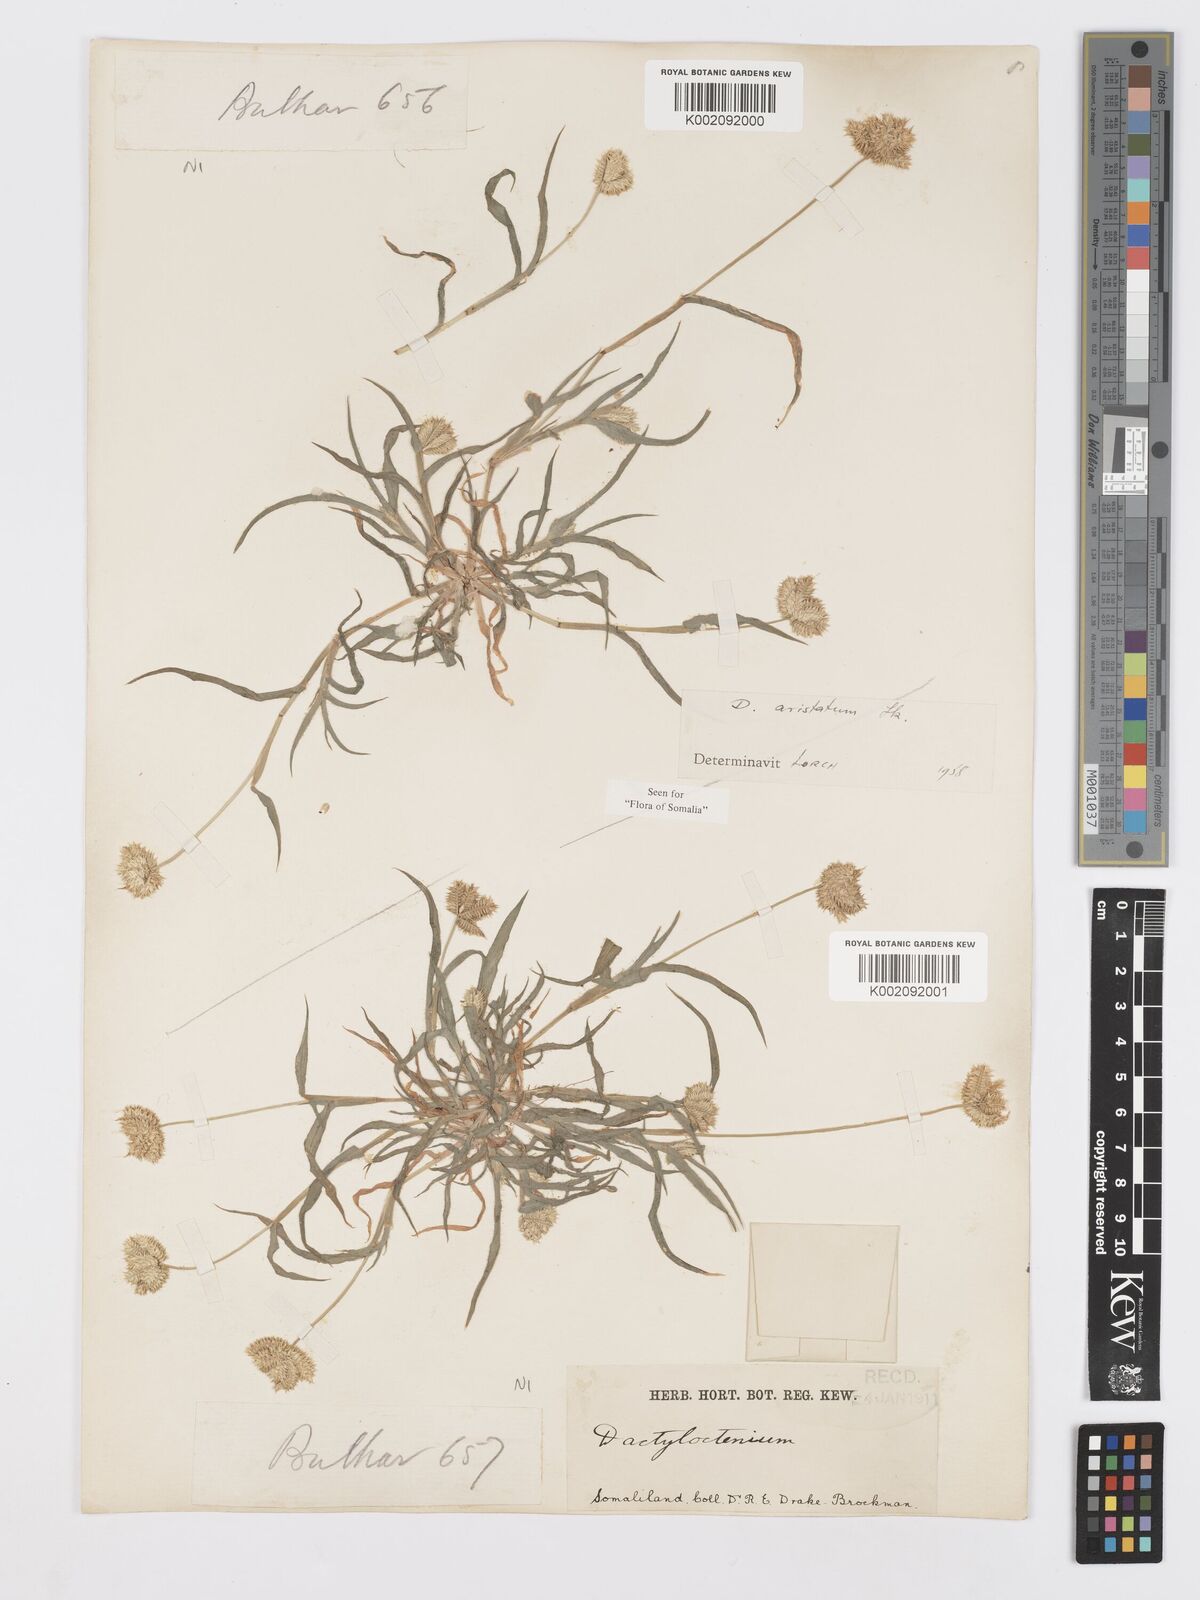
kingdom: Plantae
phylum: Tracheophyta
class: Liliopsida
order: Poales
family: Poaceae
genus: Dactyloctenium
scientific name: Dactyloctenium aristatum
